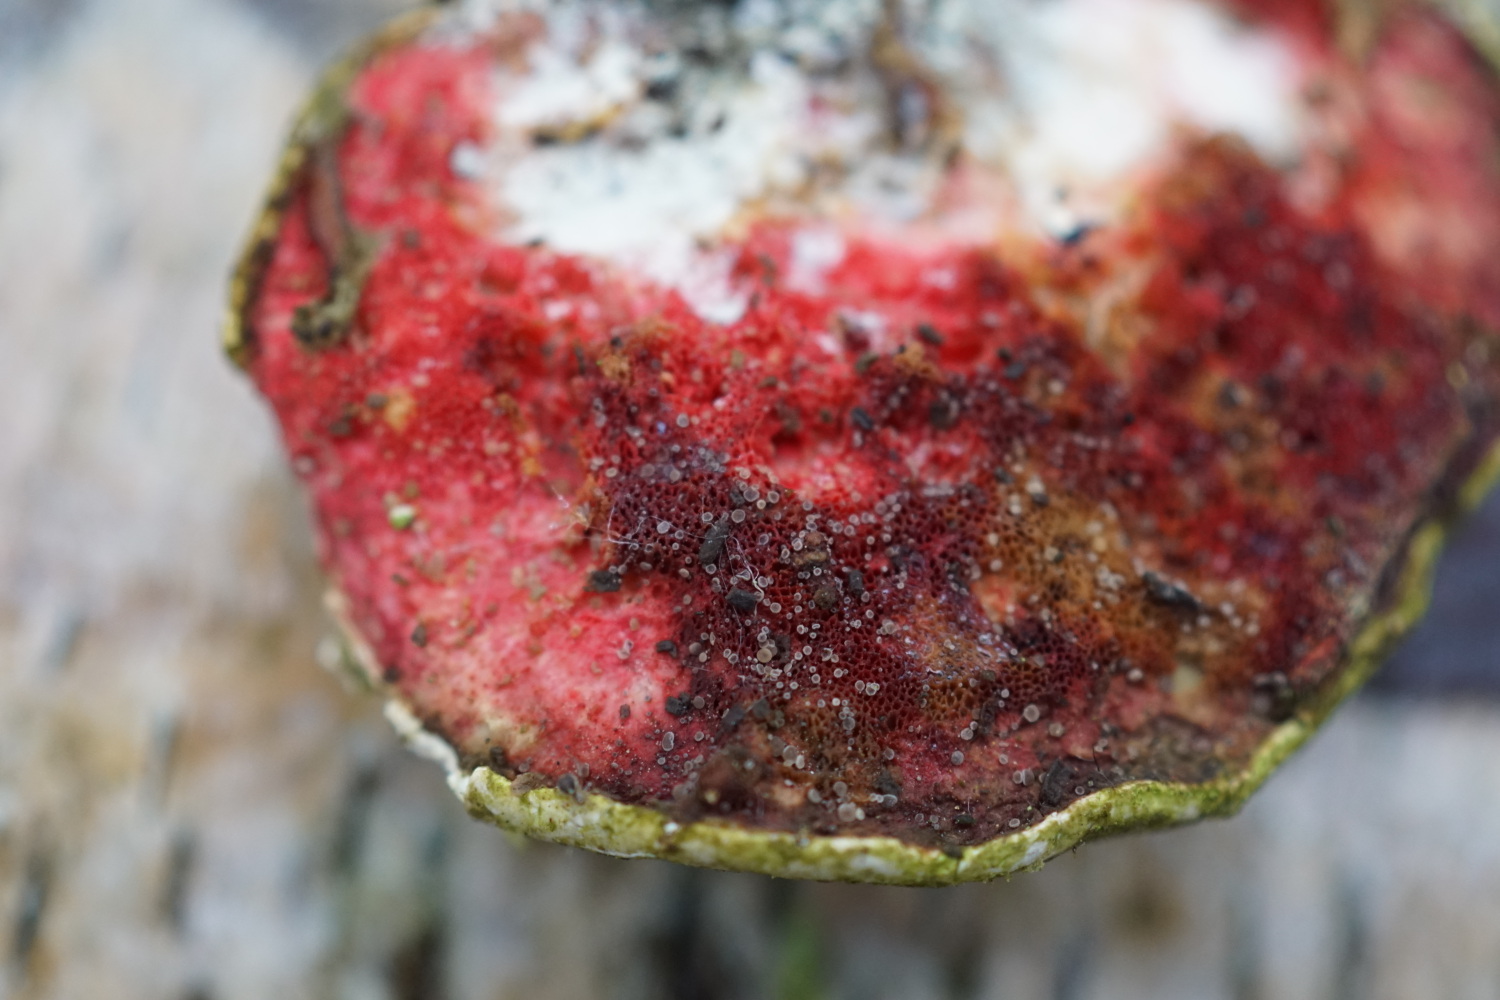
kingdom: Fungi
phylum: Ascomycota
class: Leotiomycetes
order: Helotiales
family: Hyphodiscaceae
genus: Hyphodiscus
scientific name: Hyphodiscus hymeniophilus
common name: snyltende sirskive
